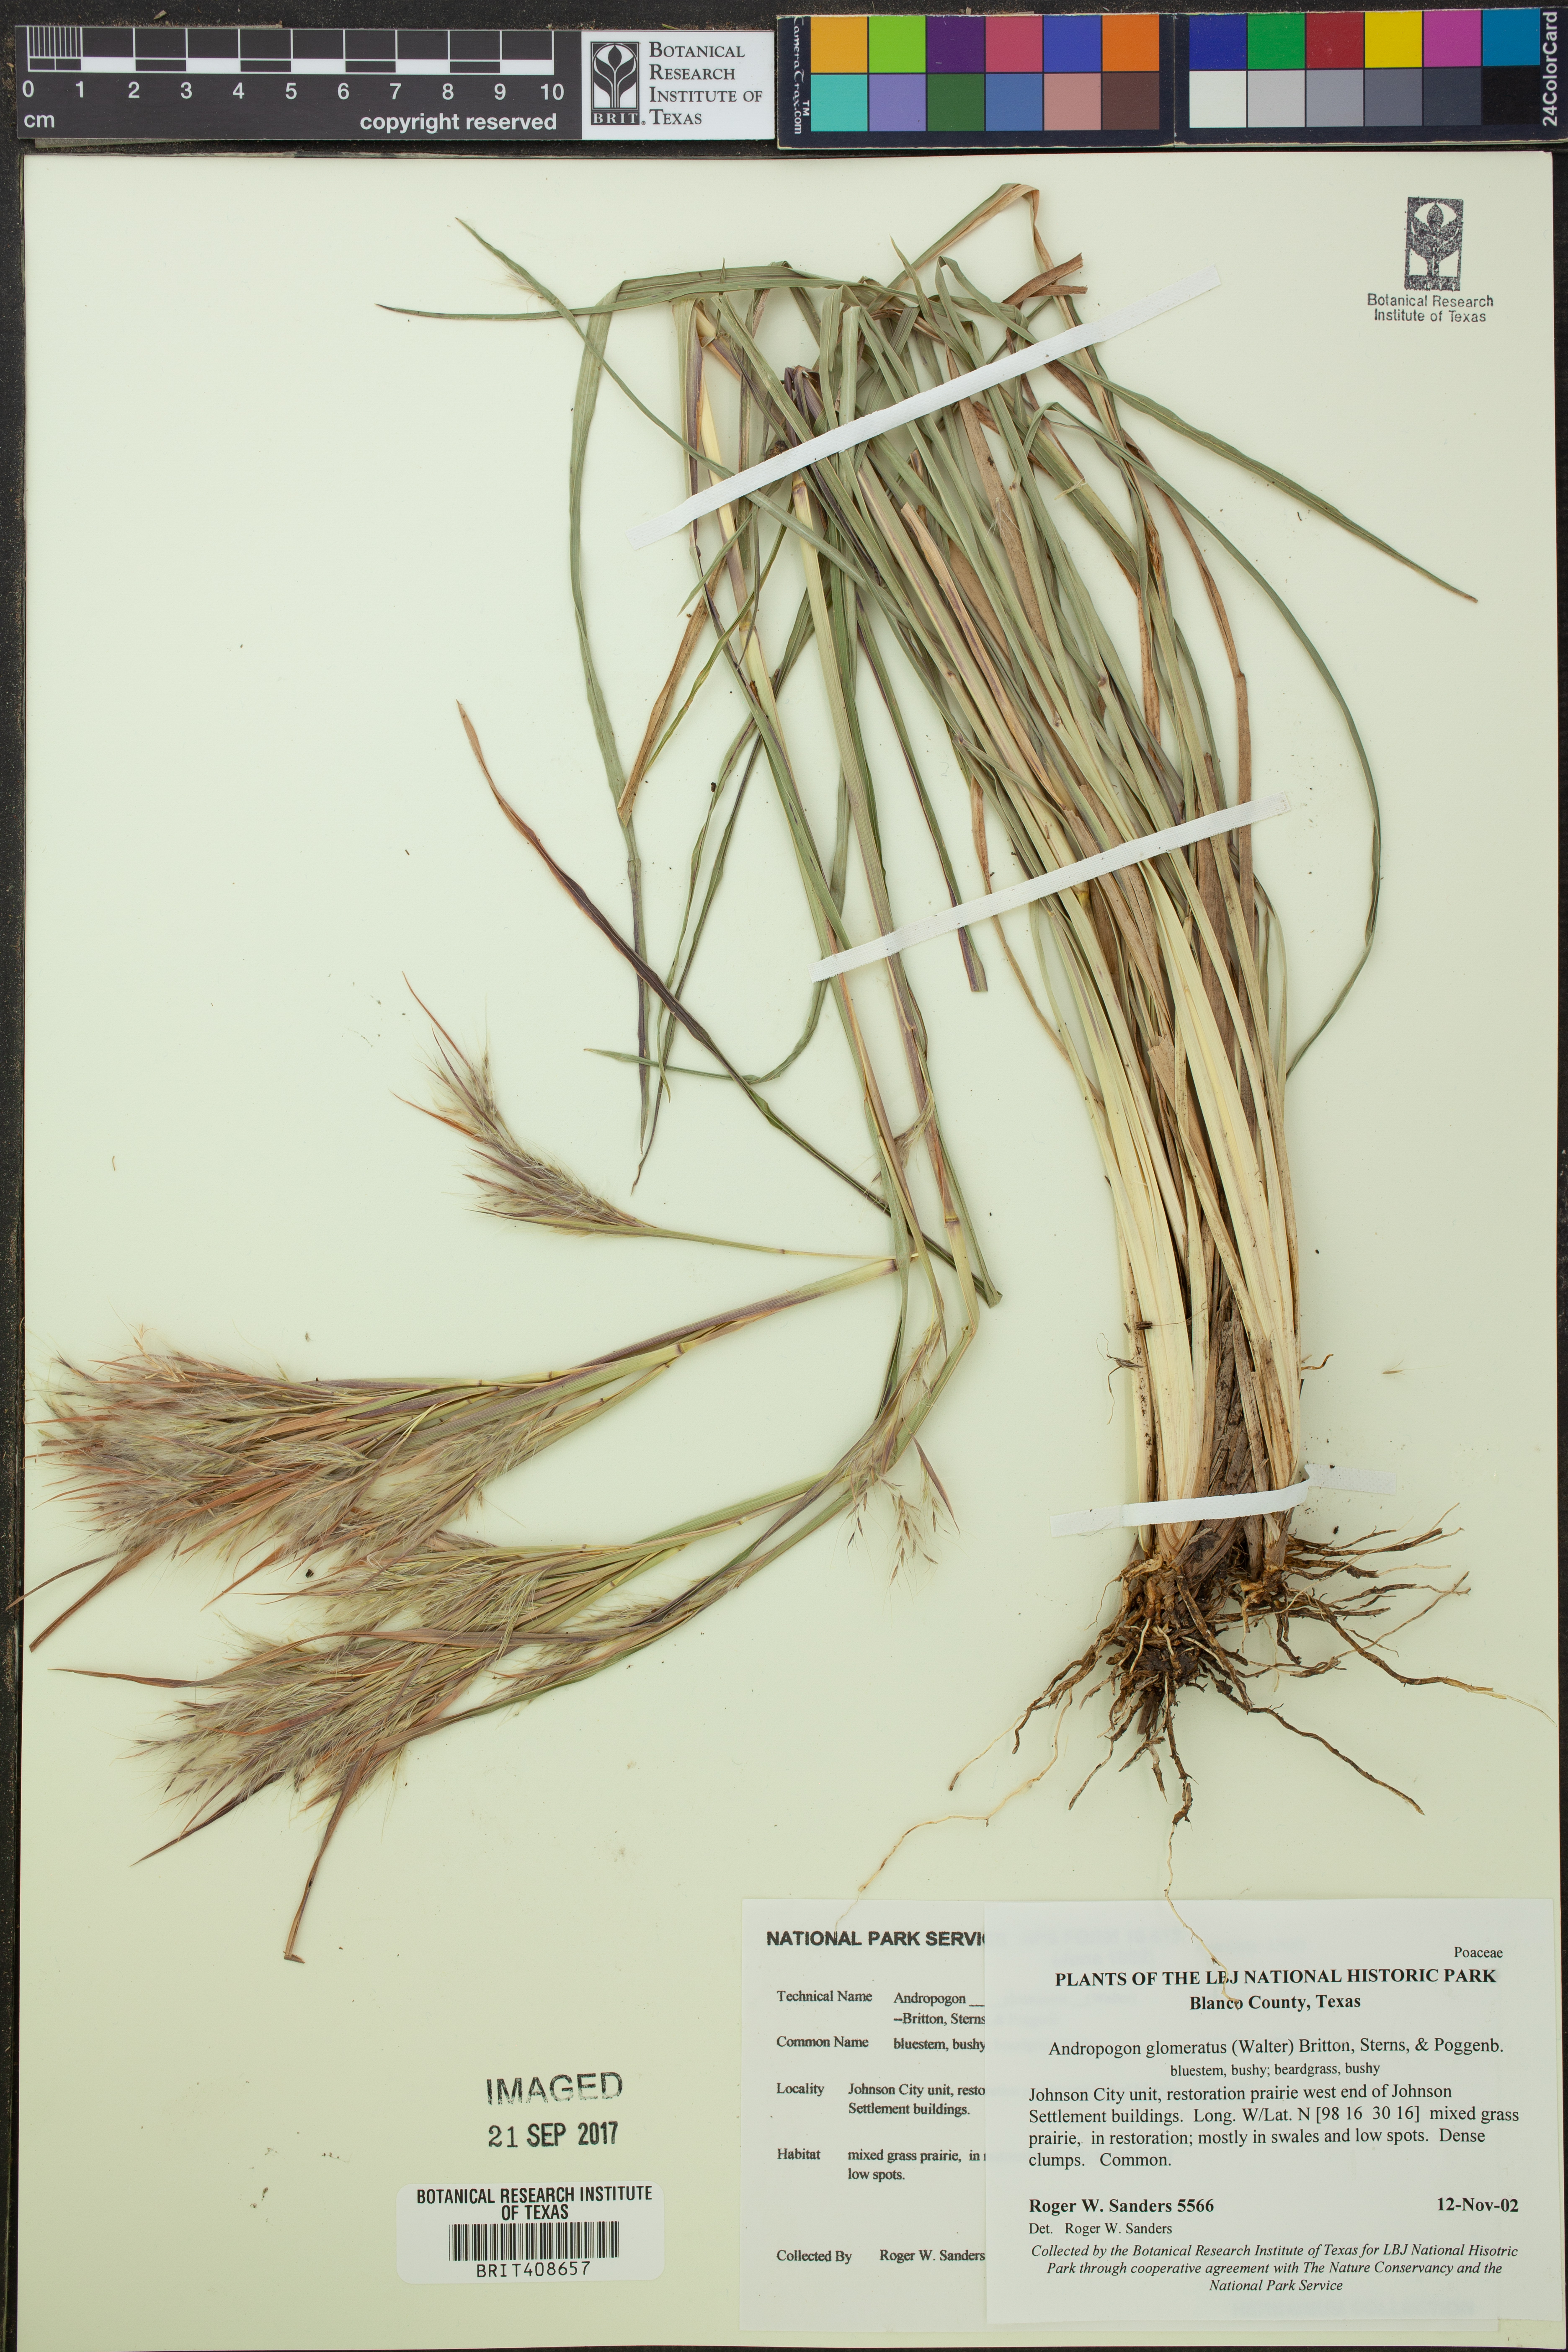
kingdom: Plantae
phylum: Tracheophyta
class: Liliopsida
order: Poales
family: Poaceae
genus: Andropogon
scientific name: Andropogon glomeratus
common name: Bushy beard grass
